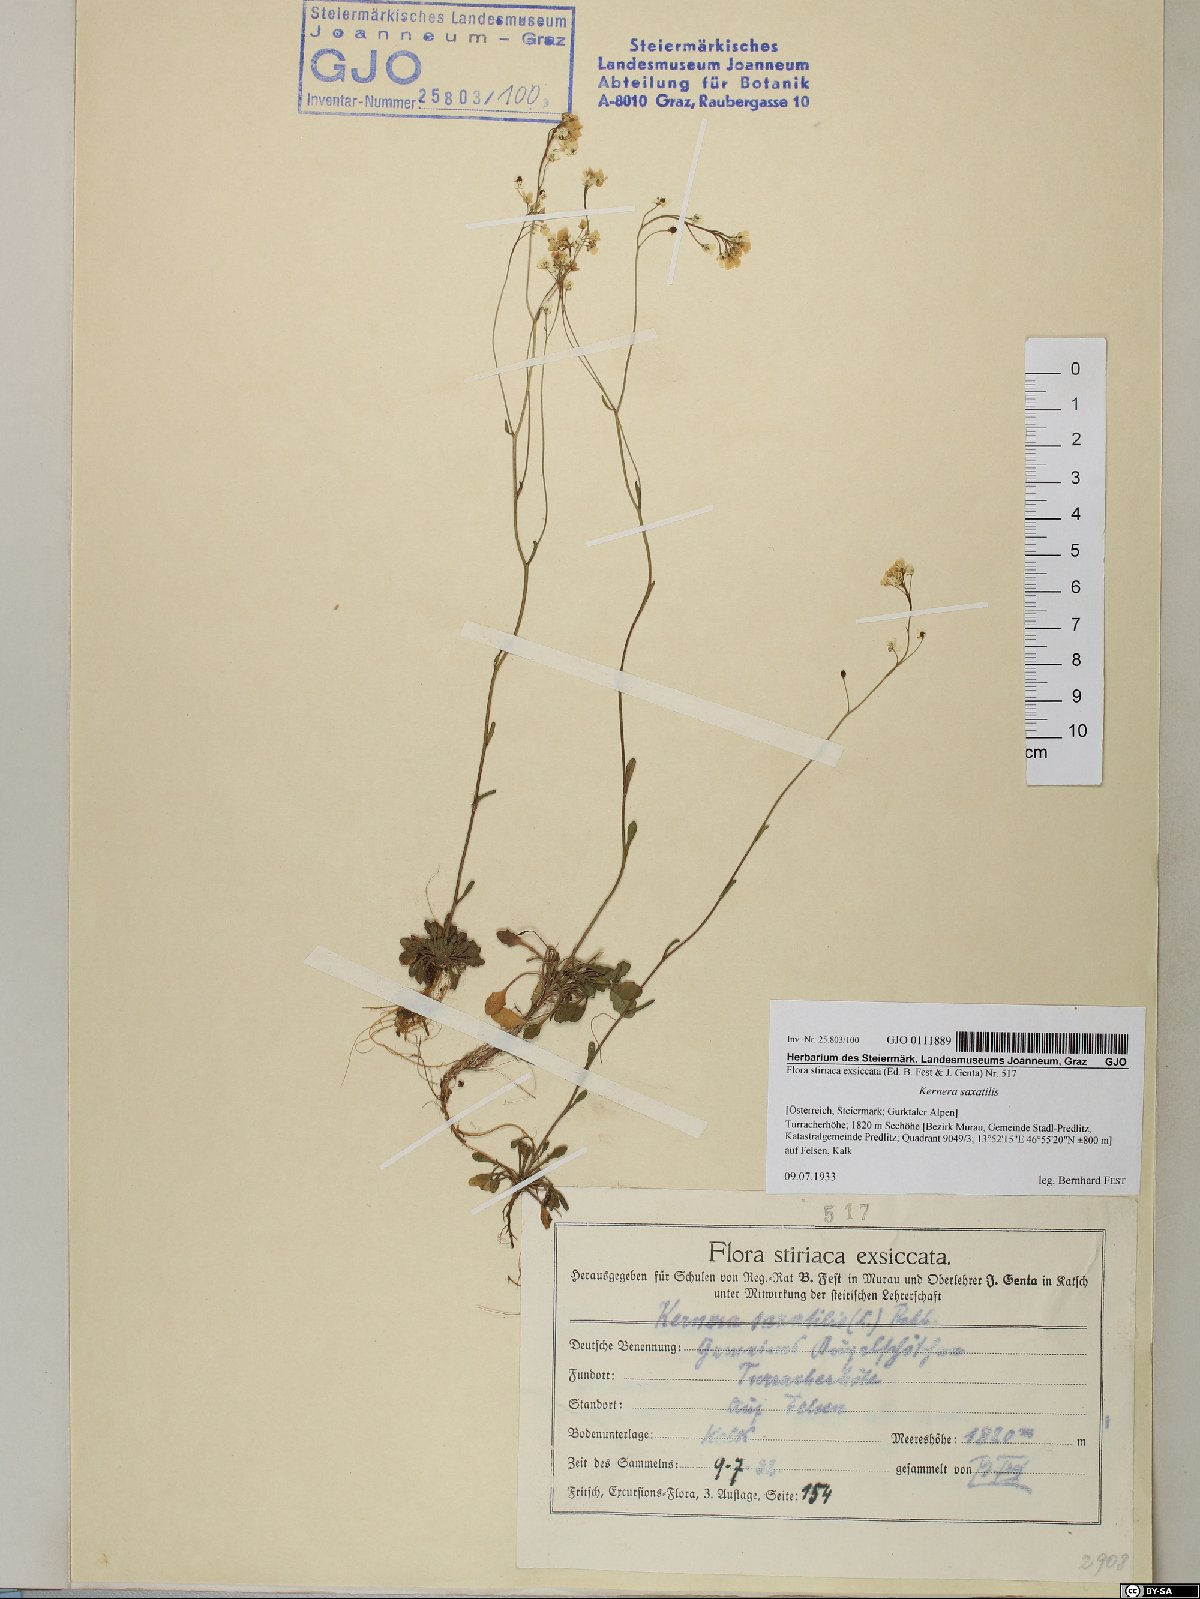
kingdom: Plantae
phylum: Tracheophyta
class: Magnoliopsida
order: Brassicales
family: Brassicaceae
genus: Kernera
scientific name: Kernera saxatilis
